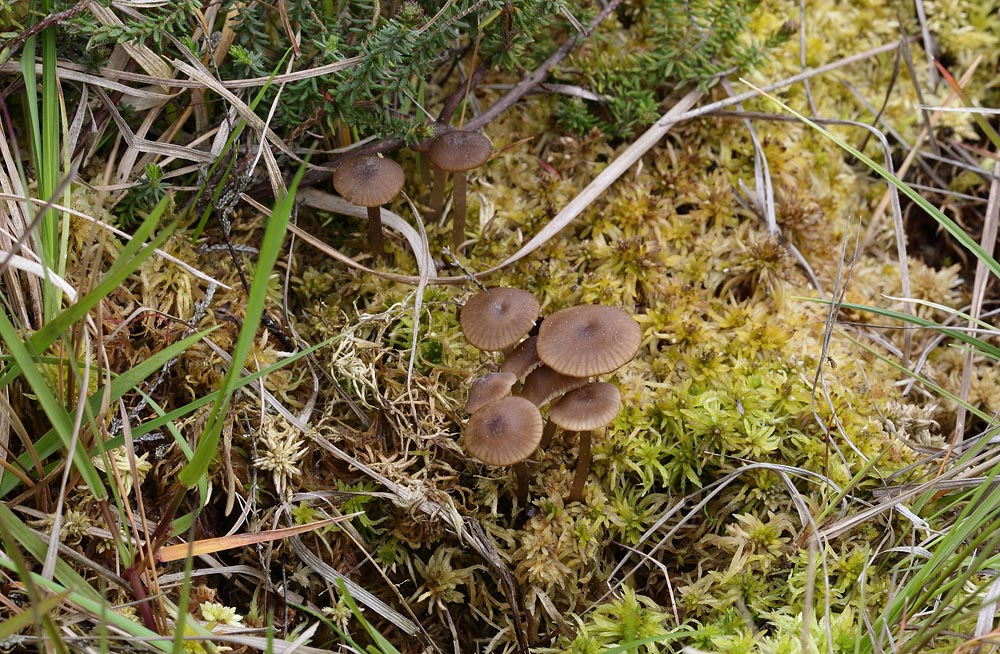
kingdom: Fungi
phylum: Basidiomycota
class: Agaricomycetes
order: Agaricales
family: Lyophyllaceae
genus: Sphagnurus
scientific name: Sphagnurus paluster
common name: tørvemos-gråblad
